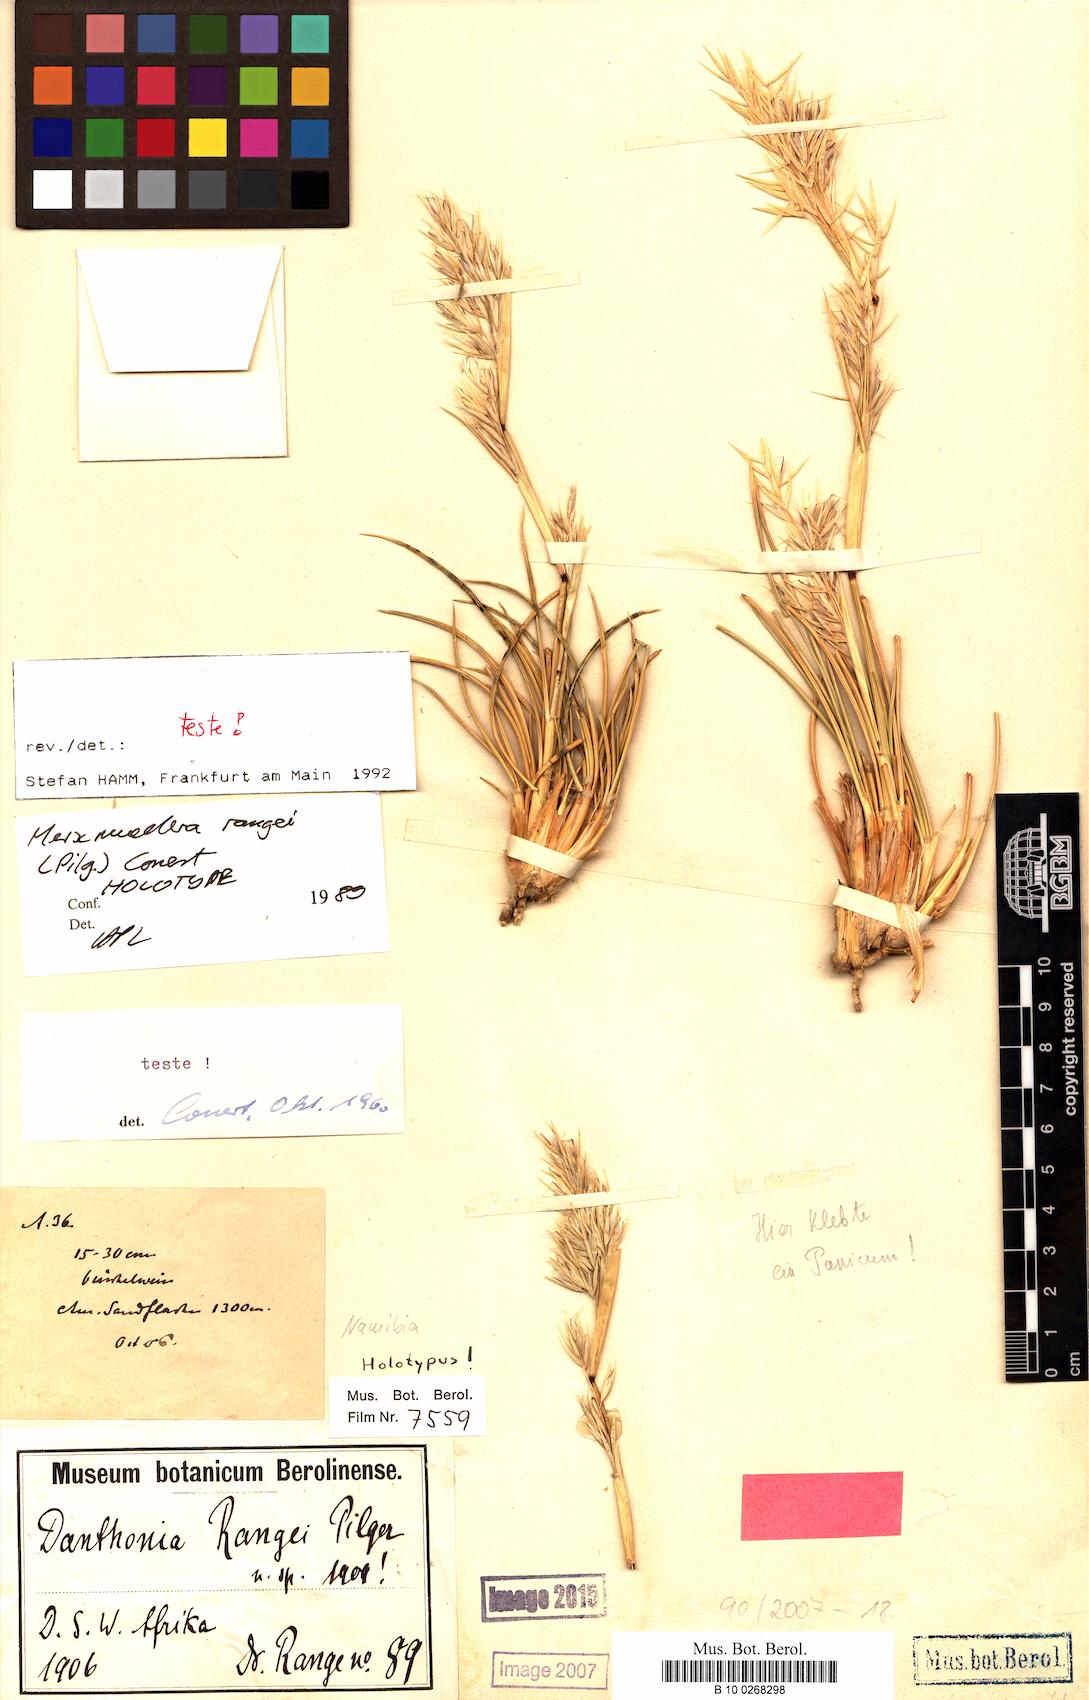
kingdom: Plantae
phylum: Tracheophyta
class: Liliopsida
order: Poales
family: Poaceae
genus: Ellisochloa
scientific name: Ellisochloa rangei
